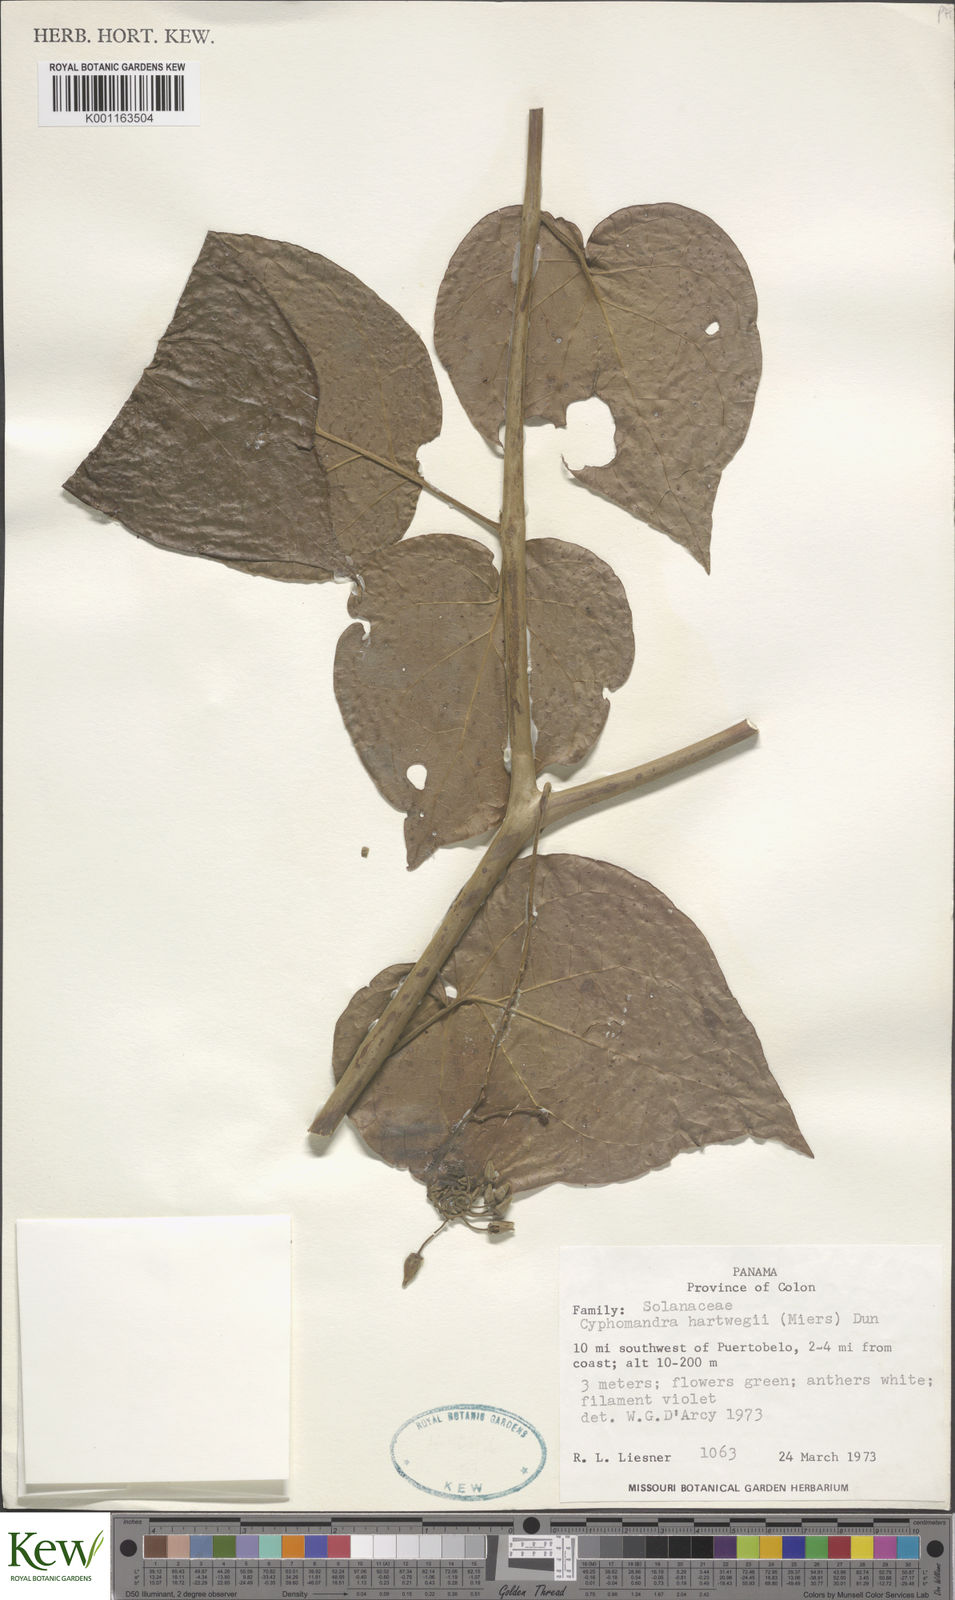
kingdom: Plantae
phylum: Tracheophyta
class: Magnoliopsida
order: Solanales
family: Solanaceae
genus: Solanum
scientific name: Solanum splendens
